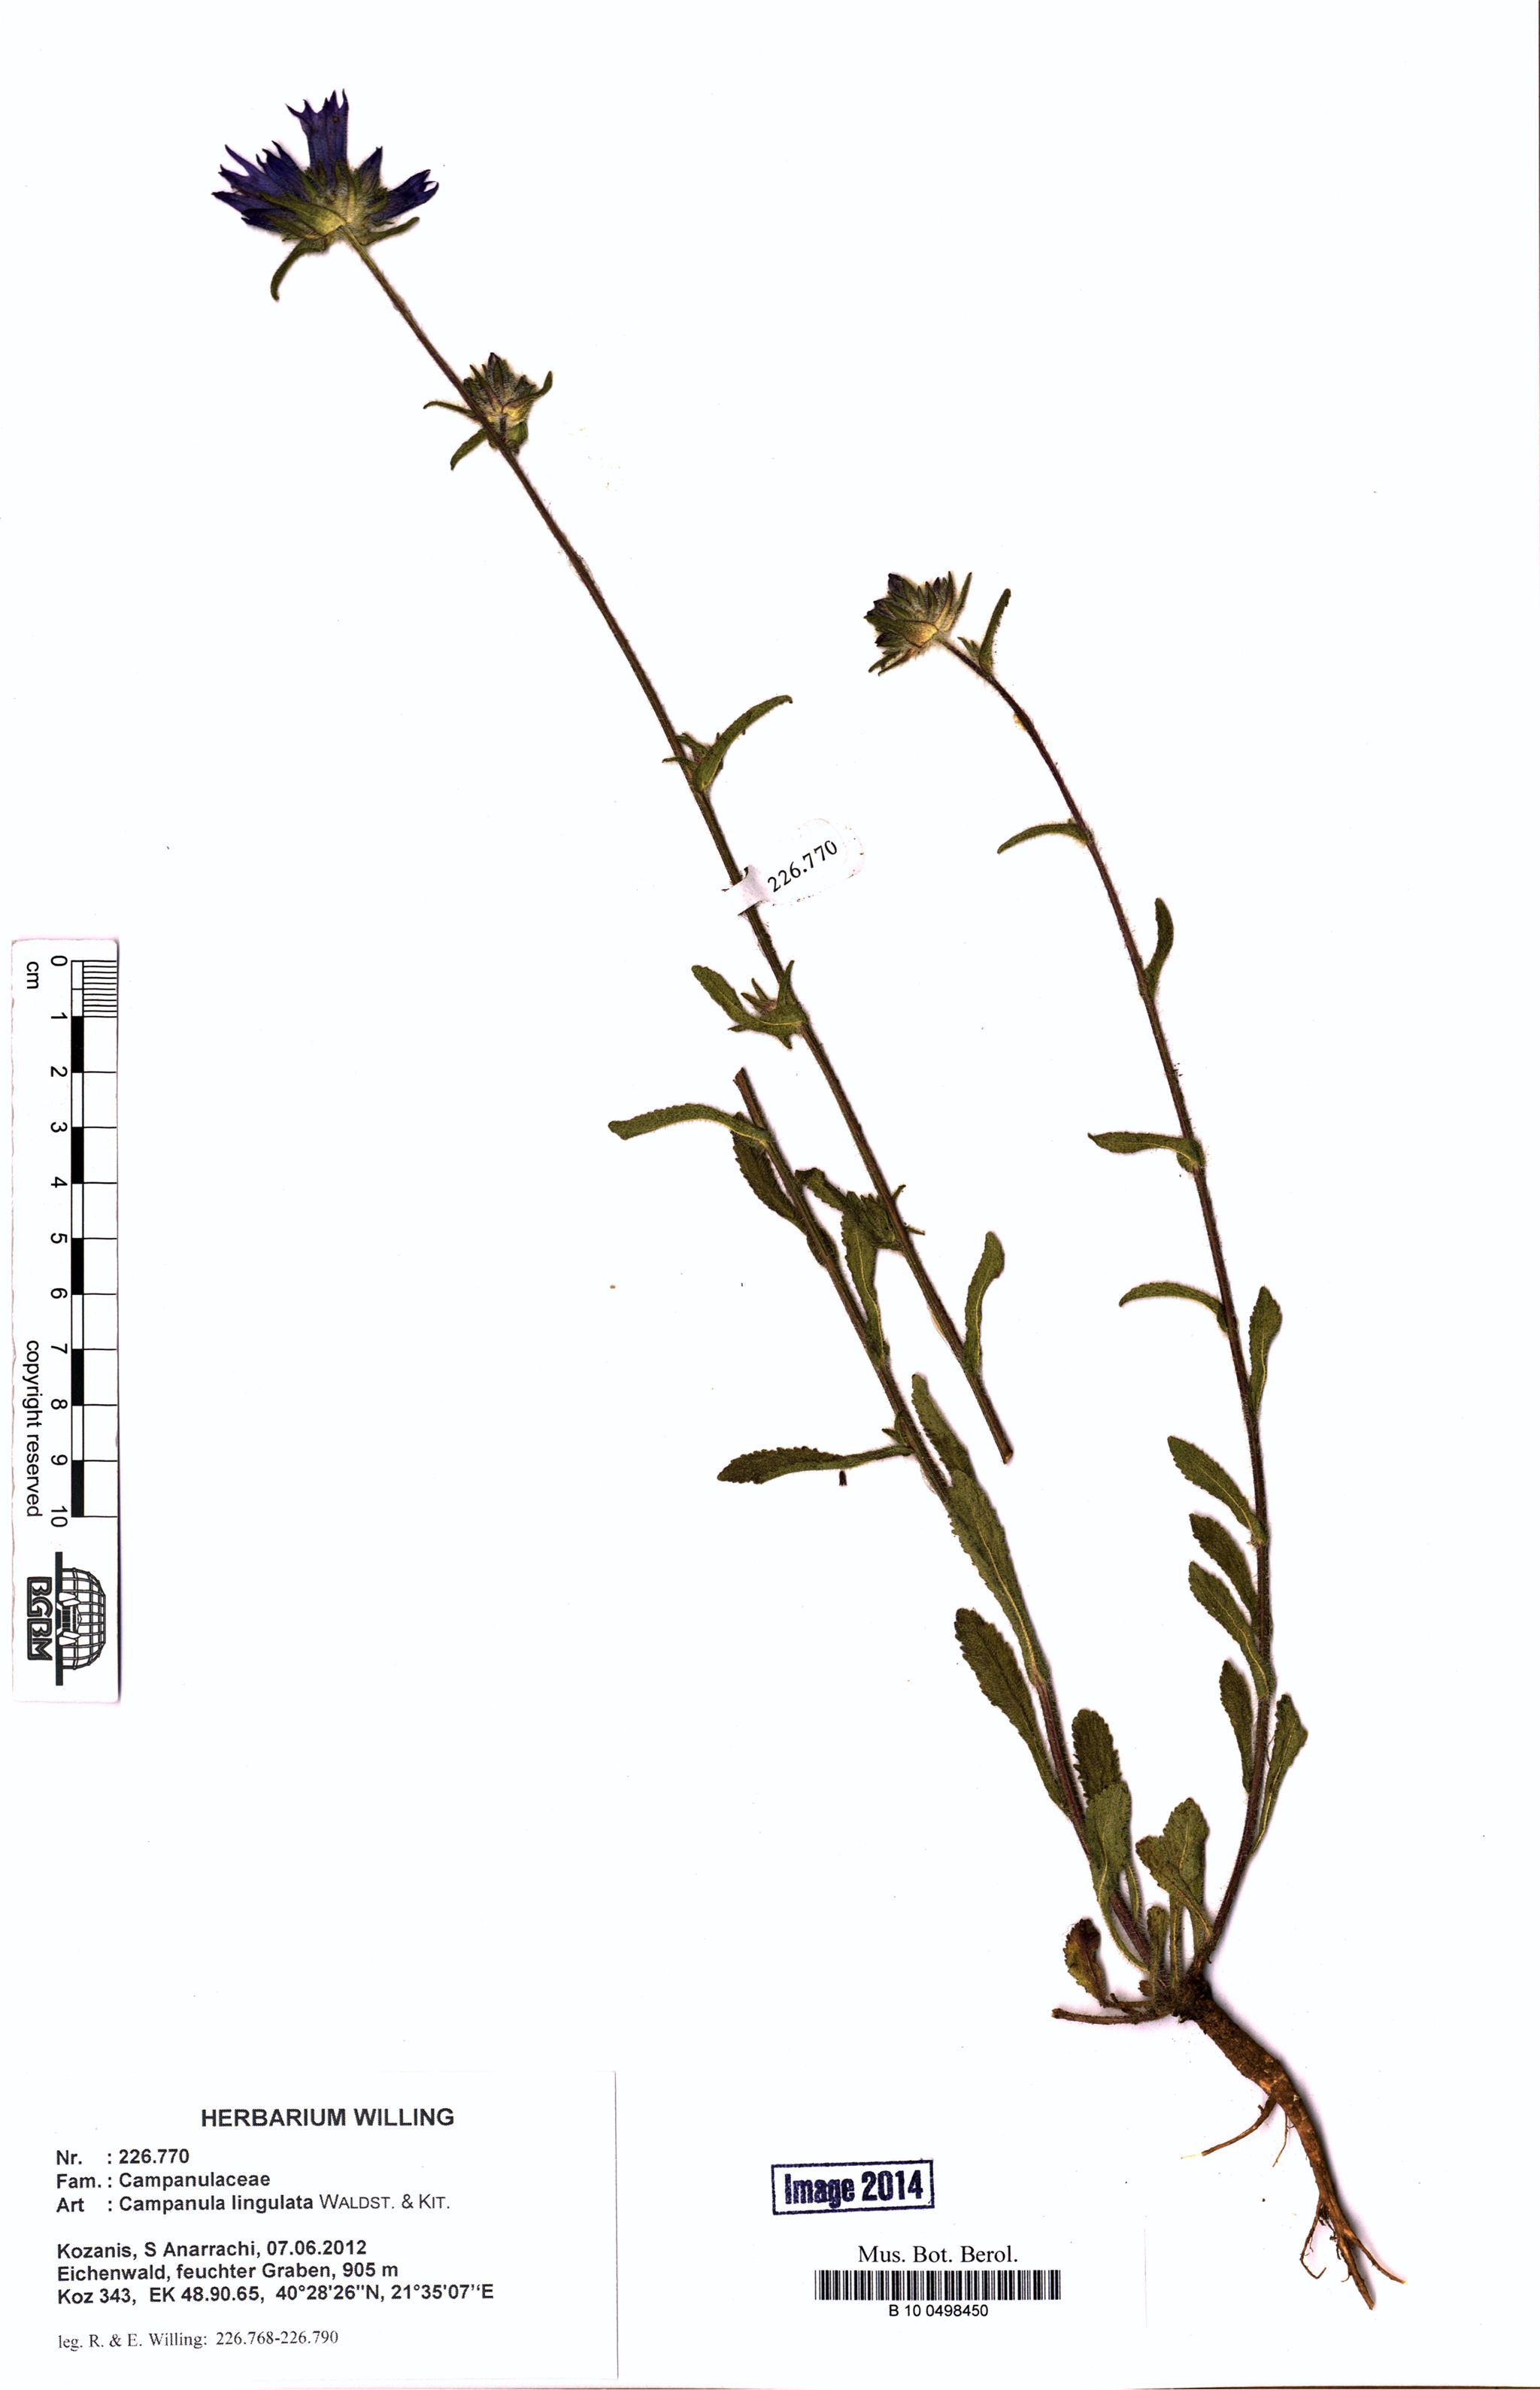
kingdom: Plantae
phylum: Tracheophyta
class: Magnoliopsida
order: Asterales
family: Campanulaceae
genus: Campanula
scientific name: Campanula lingulata
